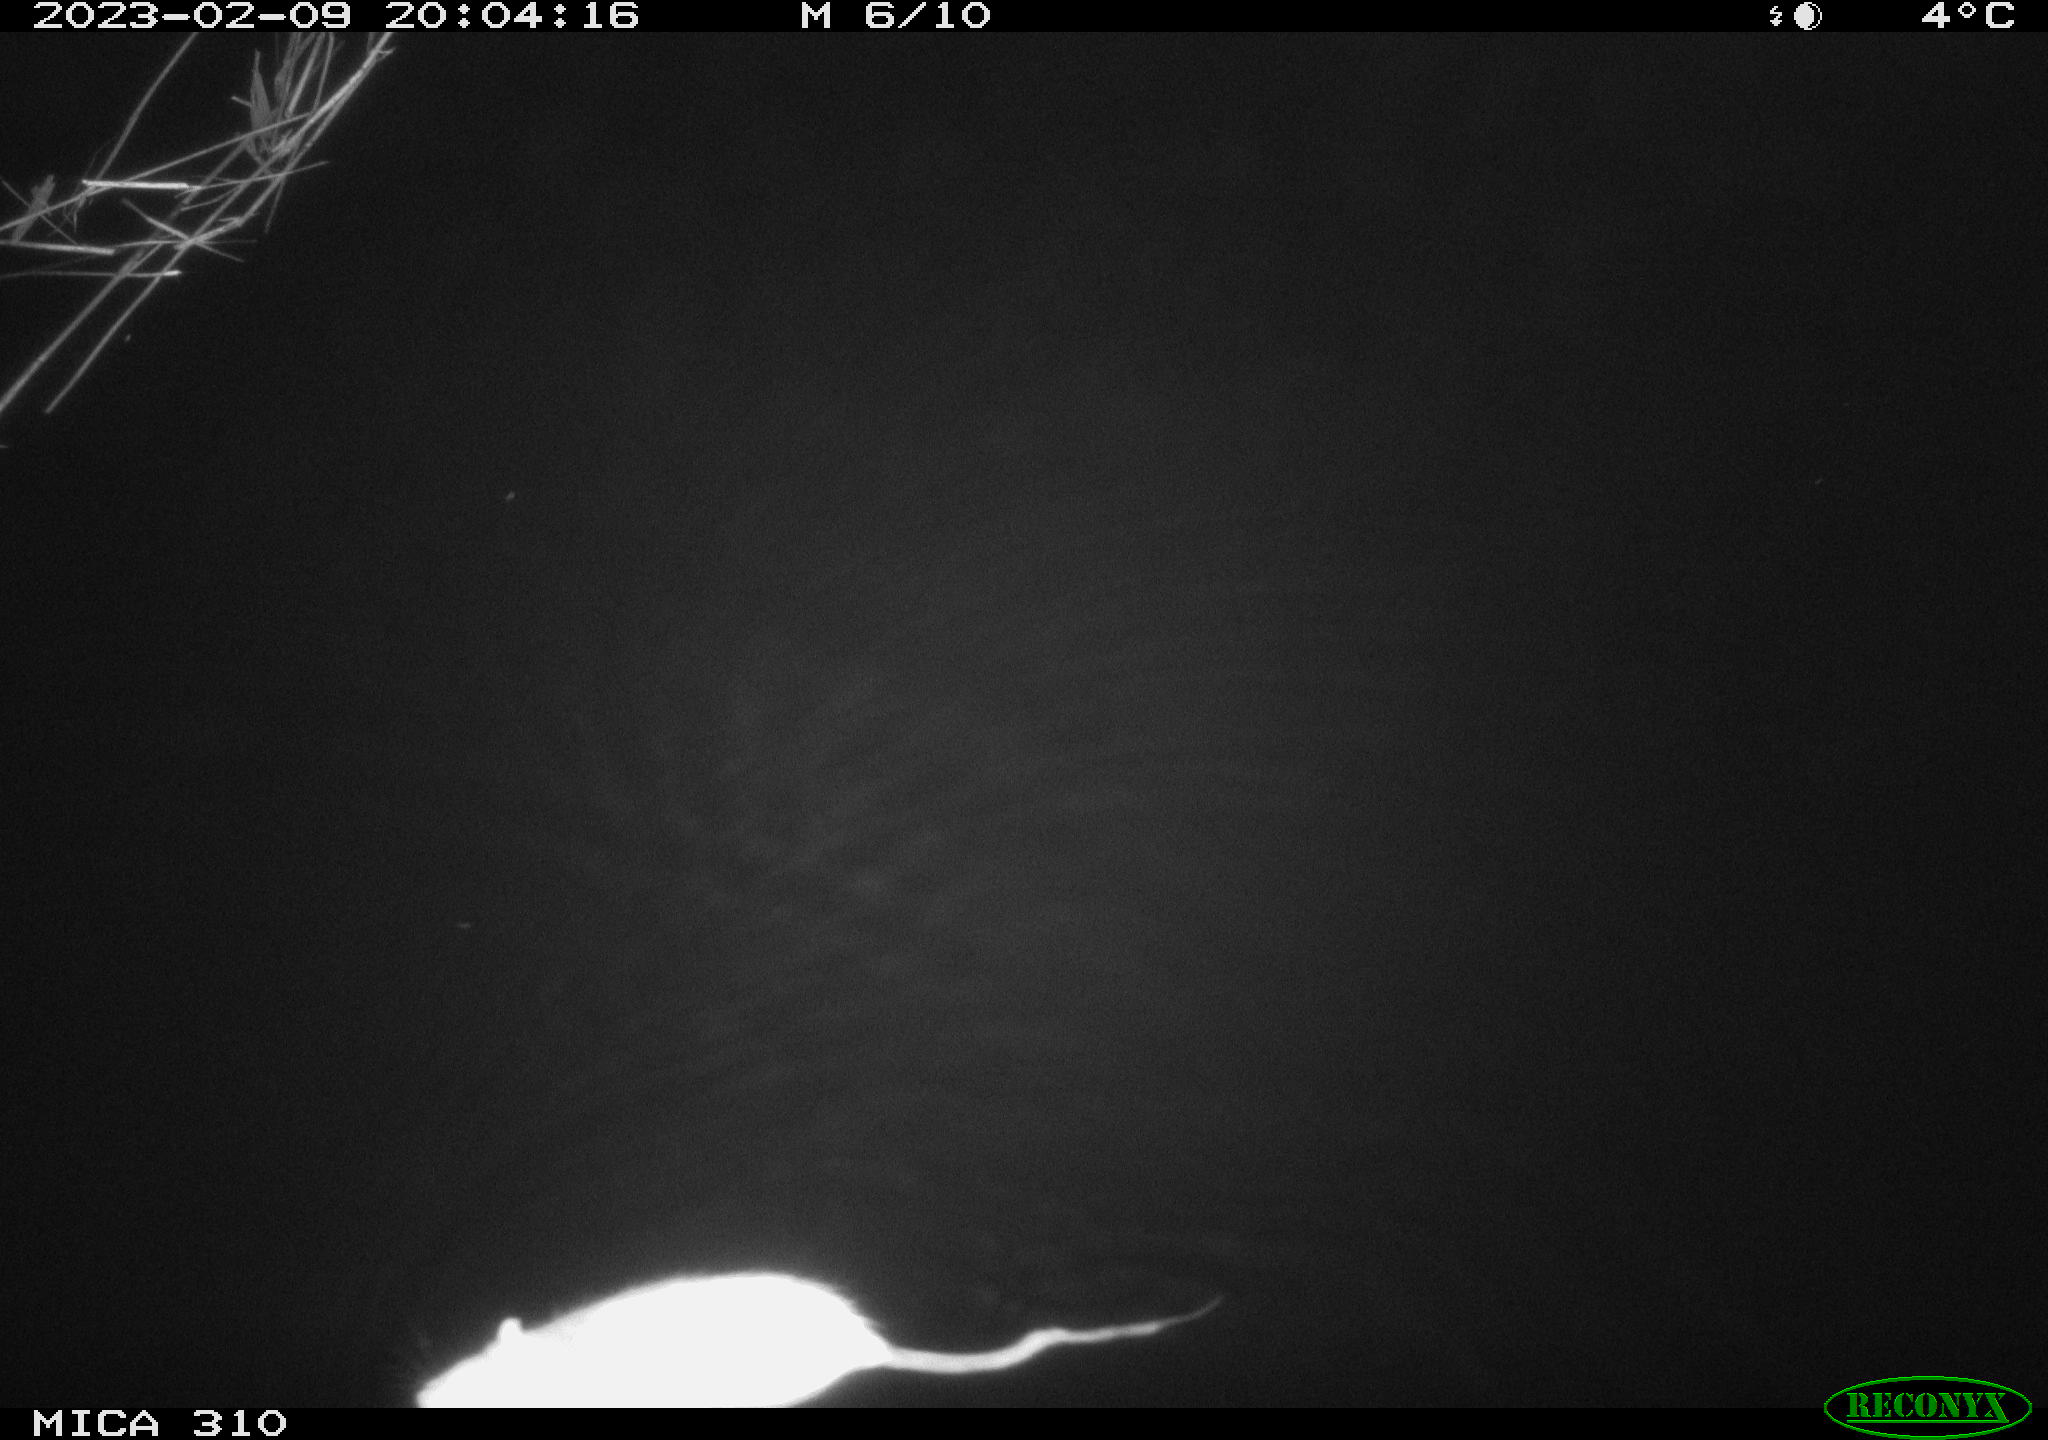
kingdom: Animalia
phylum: Chordata
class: Mammalia
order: Rodentia
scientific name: Rodentia
